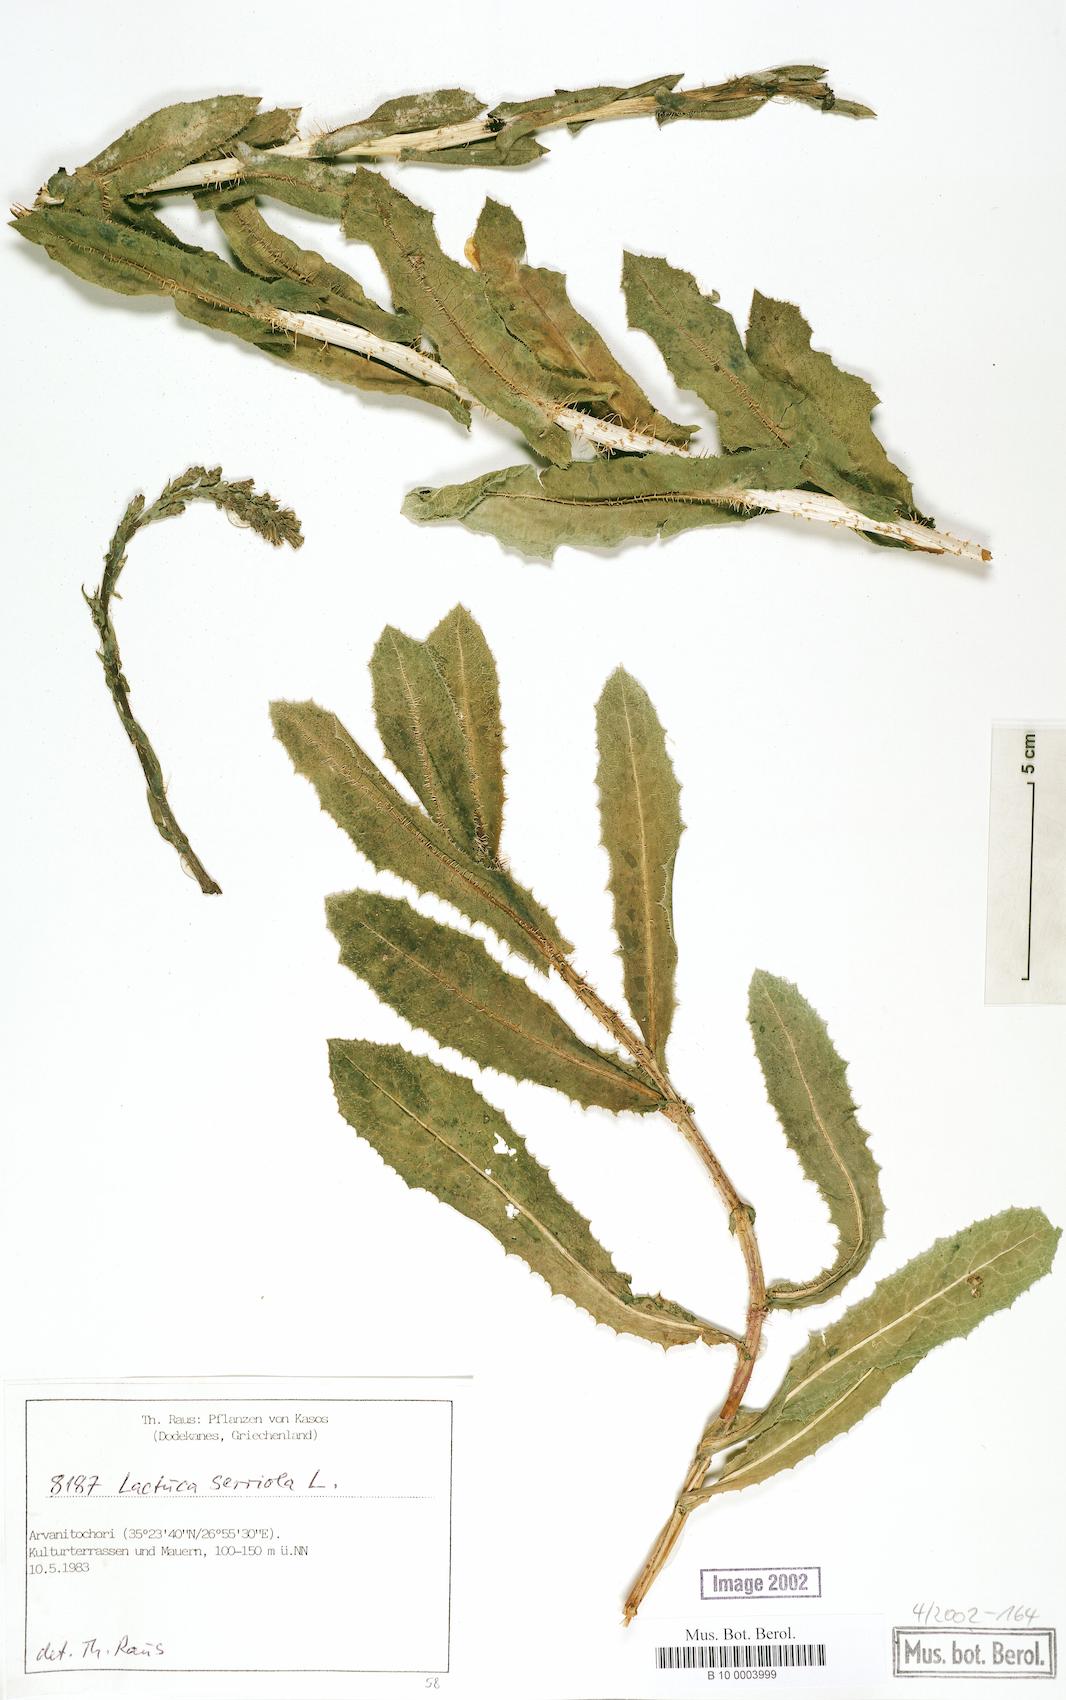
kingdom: Plantae
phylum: Tracheophyta
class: Magnoliopsida
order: Asterales
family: Asteraceae
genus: Lactuca
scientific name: Lactuca serriola
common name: Prickly lettuce
